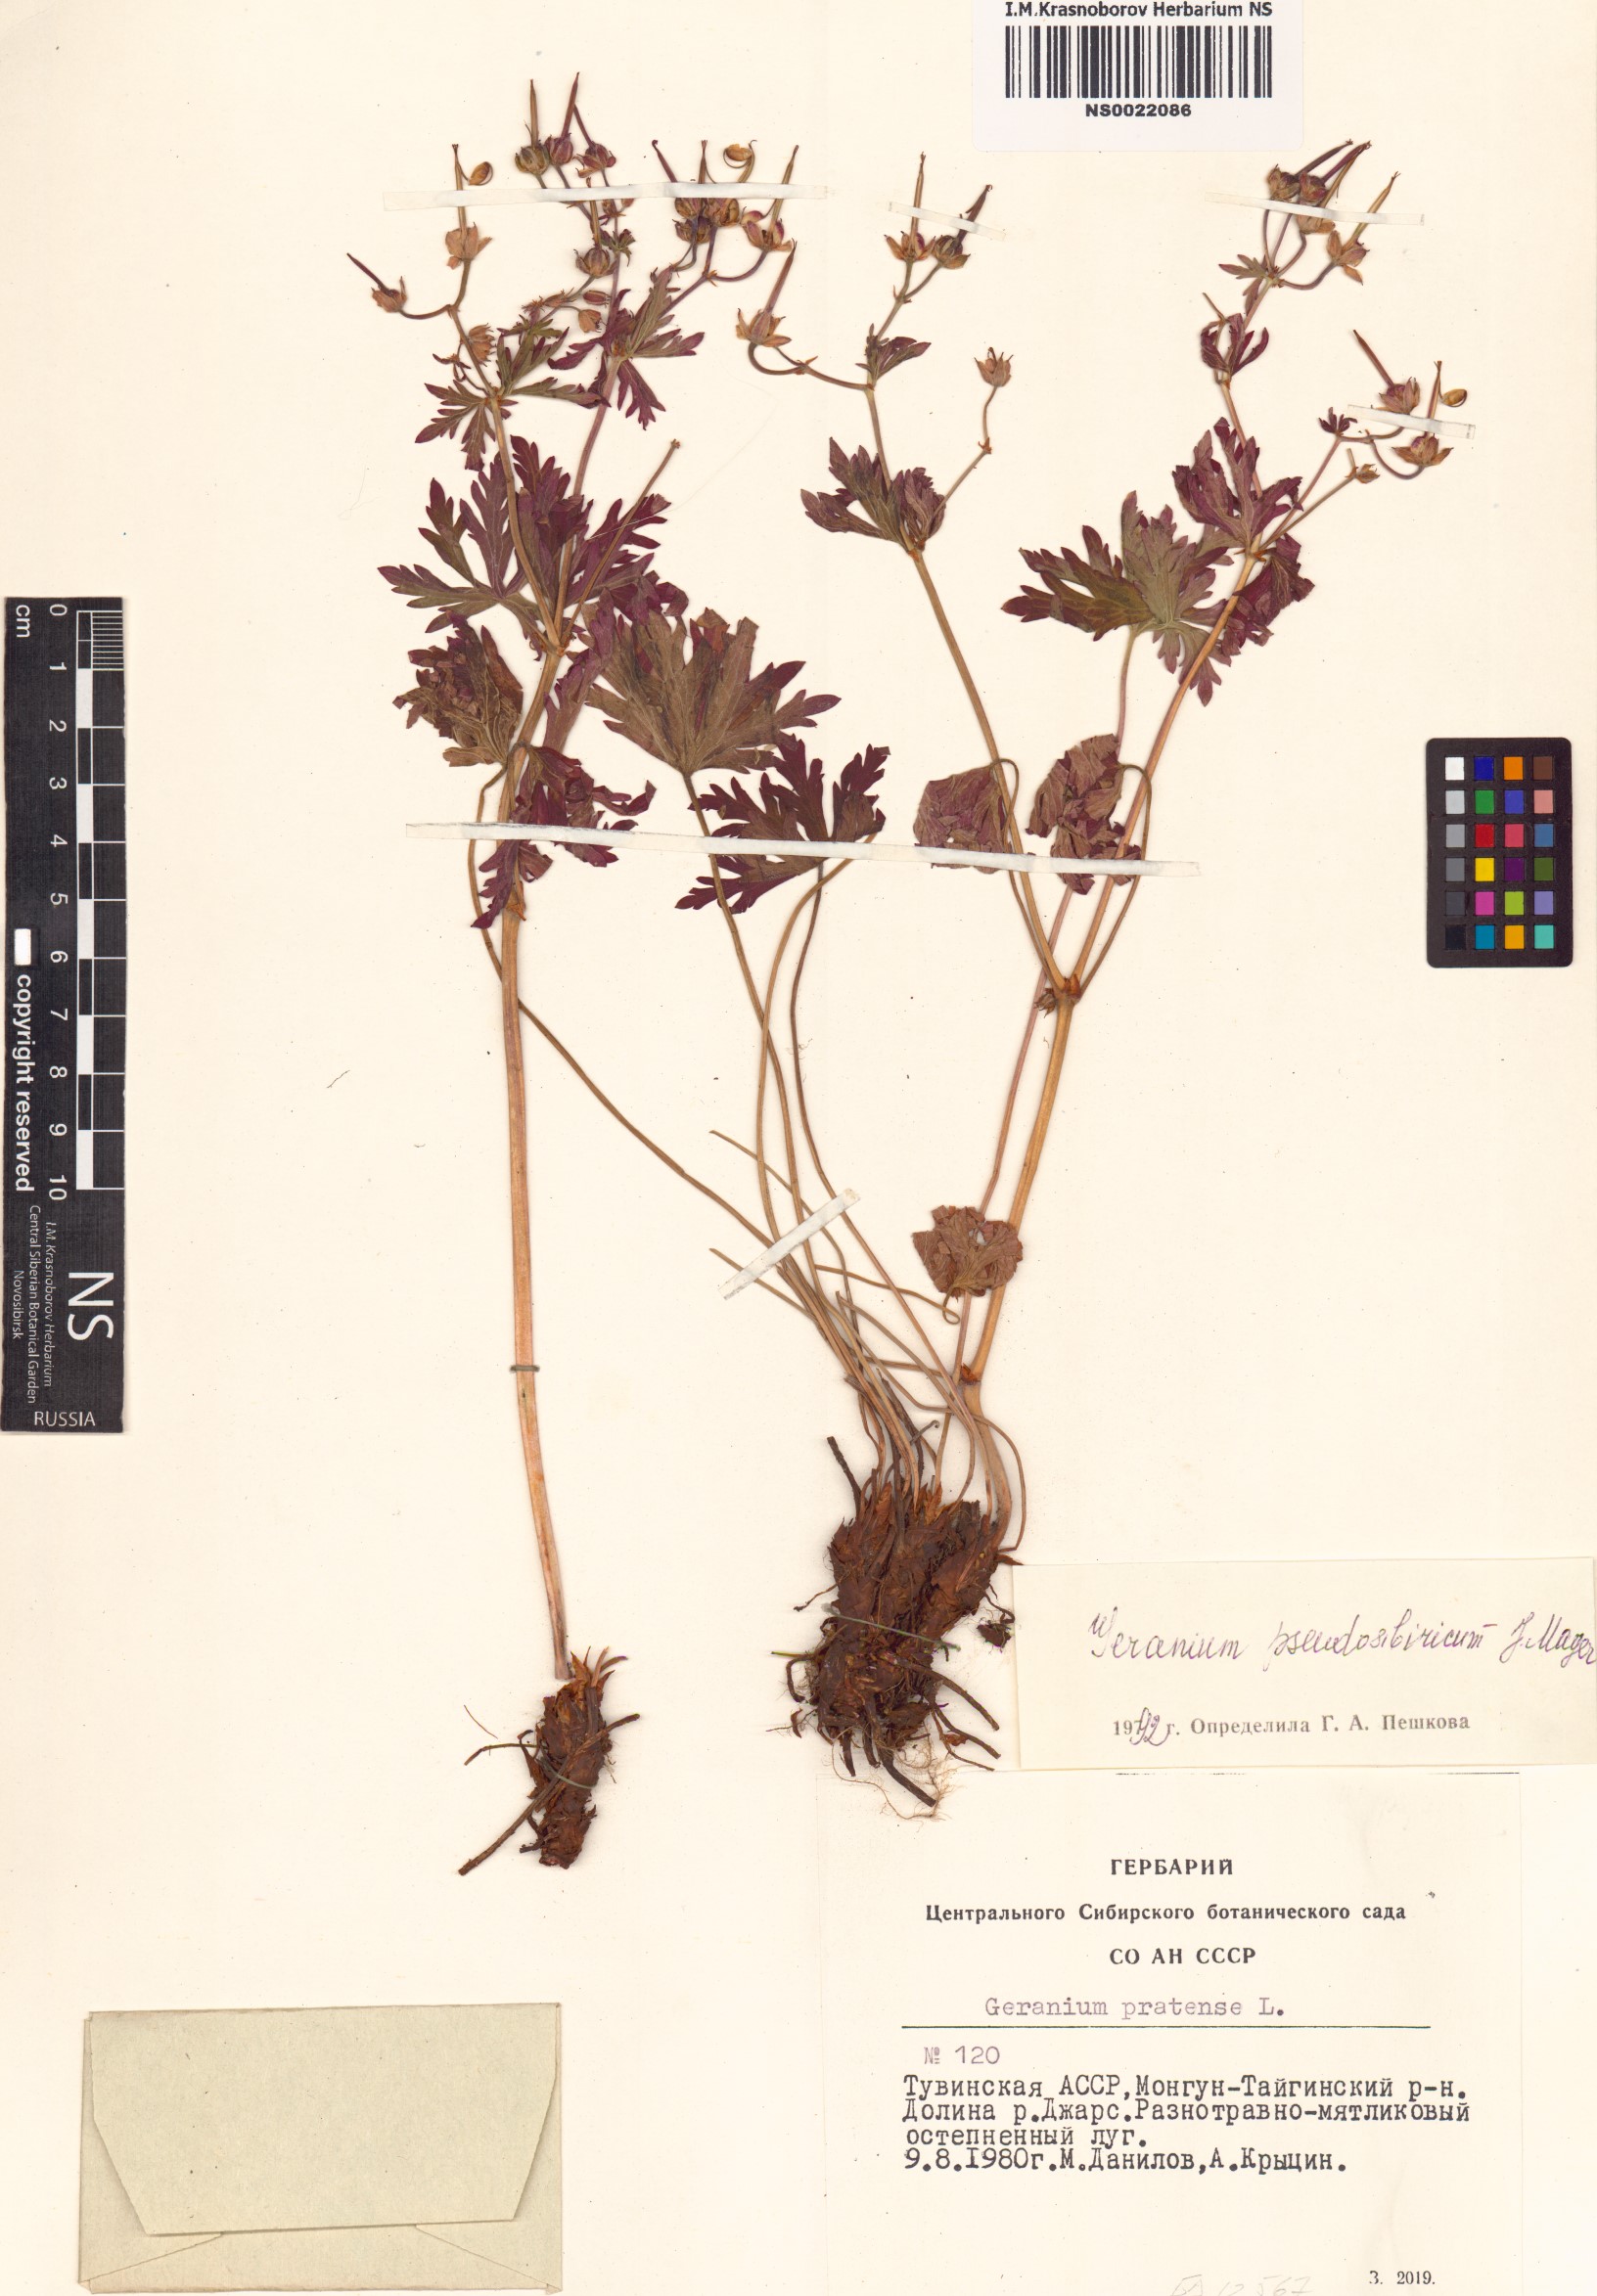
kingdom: Plantae
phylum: Tracheophyta
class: Magnoliopsida
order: Geraniales
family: Geraniaceae
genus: Geranium
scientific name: Geranium pseudosibiricum
